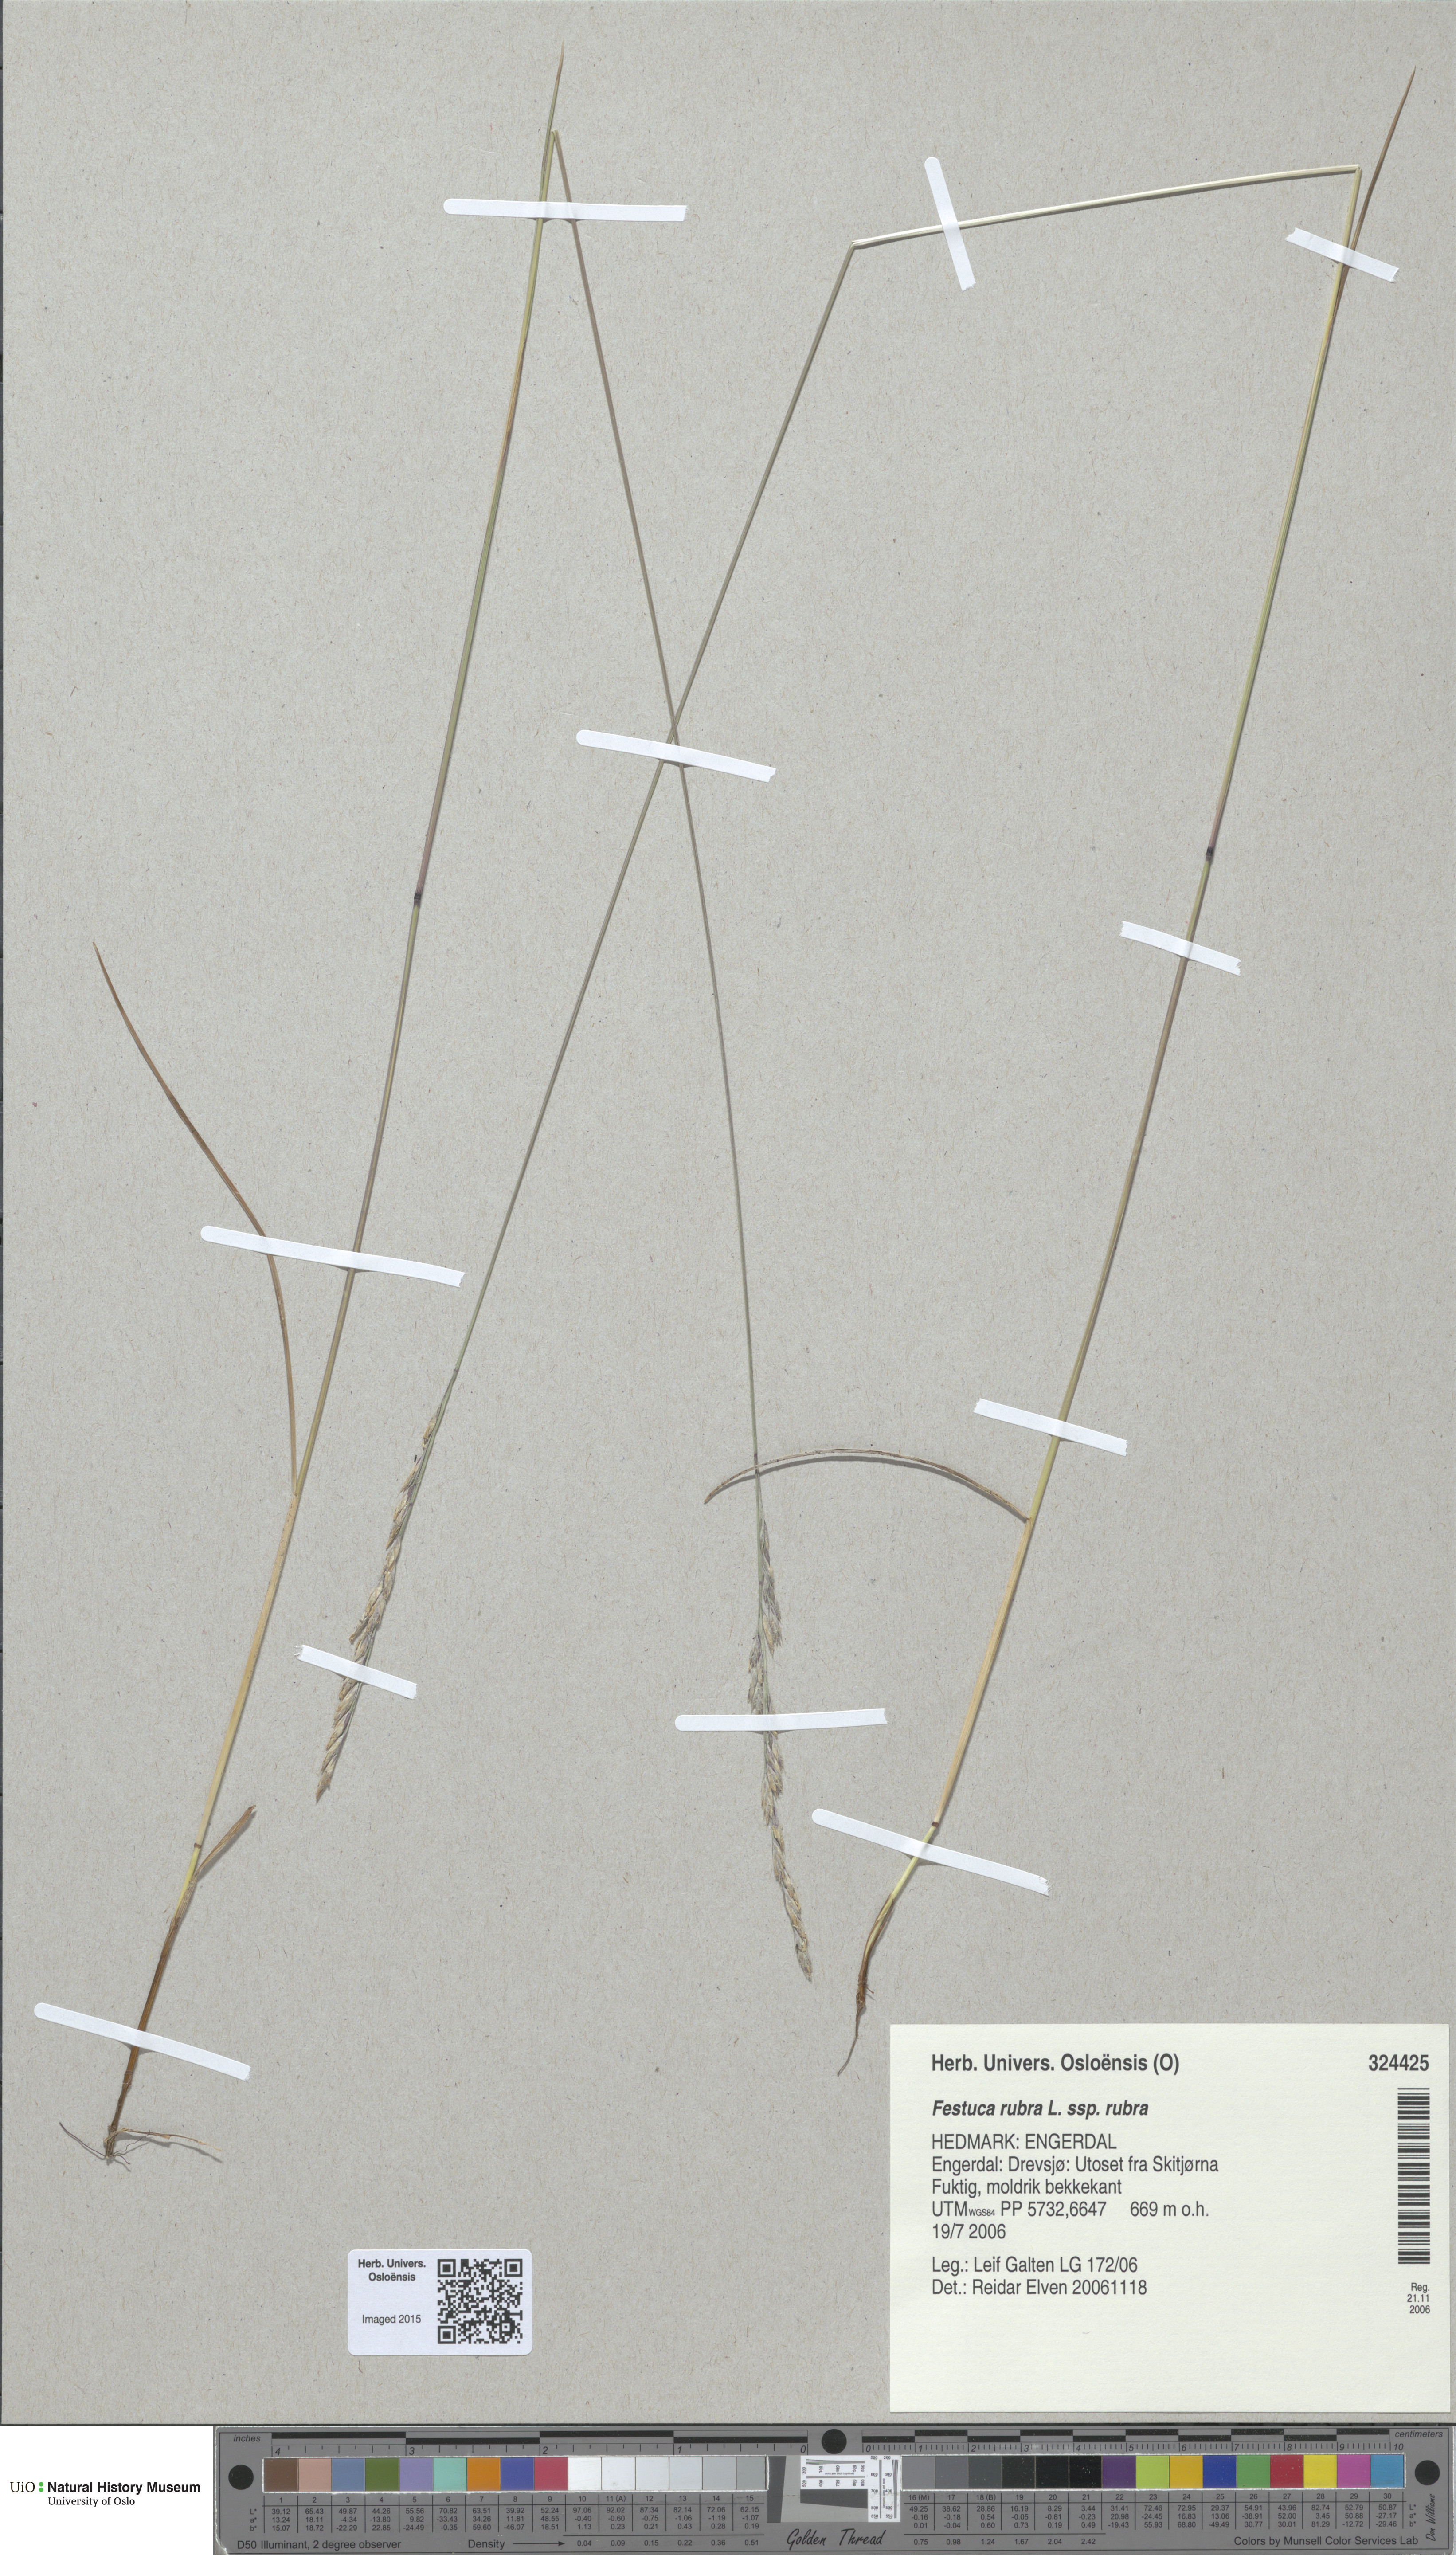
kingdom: Plantae
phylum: Tracheophyta
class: Liliopsida
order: Poales
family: Poaceae
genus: Festuca
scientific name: Festuca rubra
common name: Red fescue
